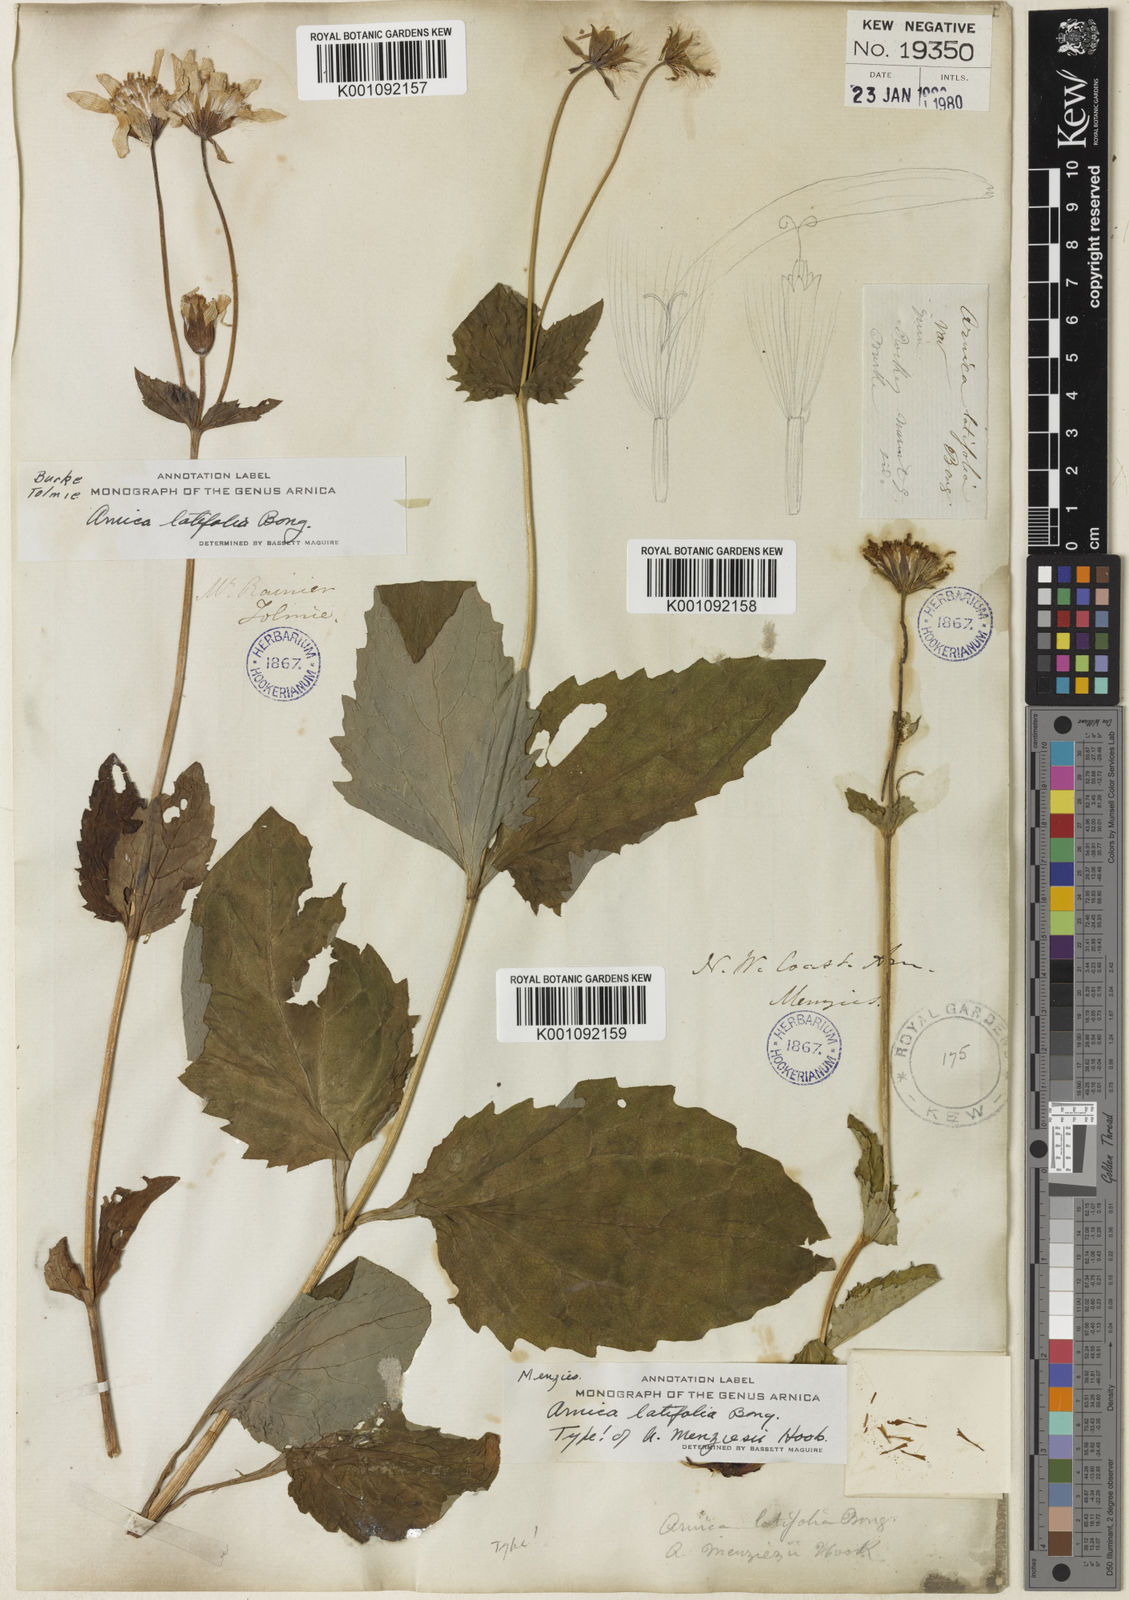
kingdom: Plantae
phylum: Tracheophyta
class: Magnoliopsida
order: Asterales
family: Asteraceae
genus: Arnica
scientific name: Arnica latifolia
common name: Arnica
